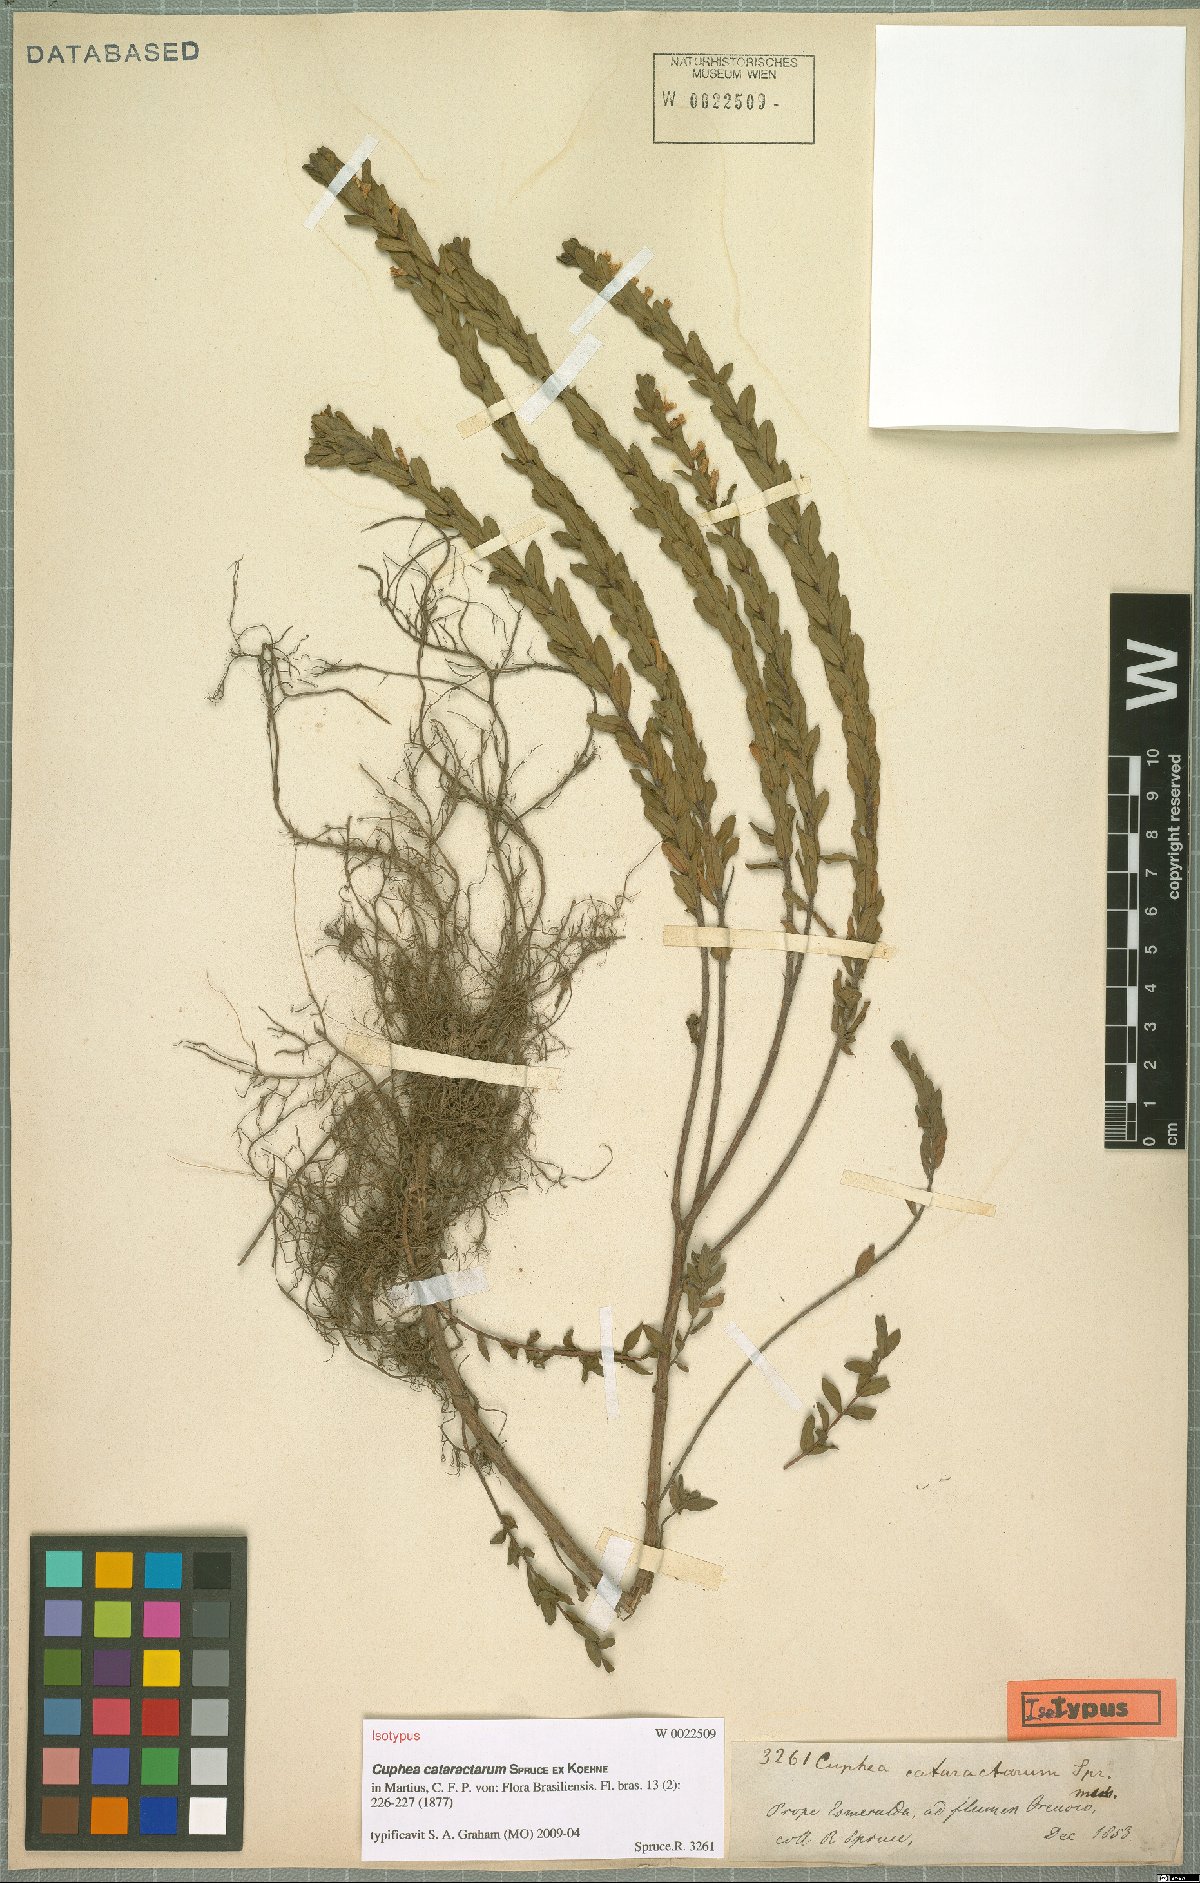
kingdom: Plantae
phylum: Tracheophyta
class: Magnoliopsida
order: Myrtales
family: Lythraceae
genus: Cuphea
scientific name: Cuphea cataractarum
